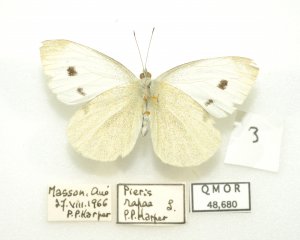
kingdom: Animalia
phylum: Arthropoda
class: Insecta
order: Lepidoptera
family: Pieridae
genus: Pieris
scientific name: Pieris rapae
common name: Cabbage White
